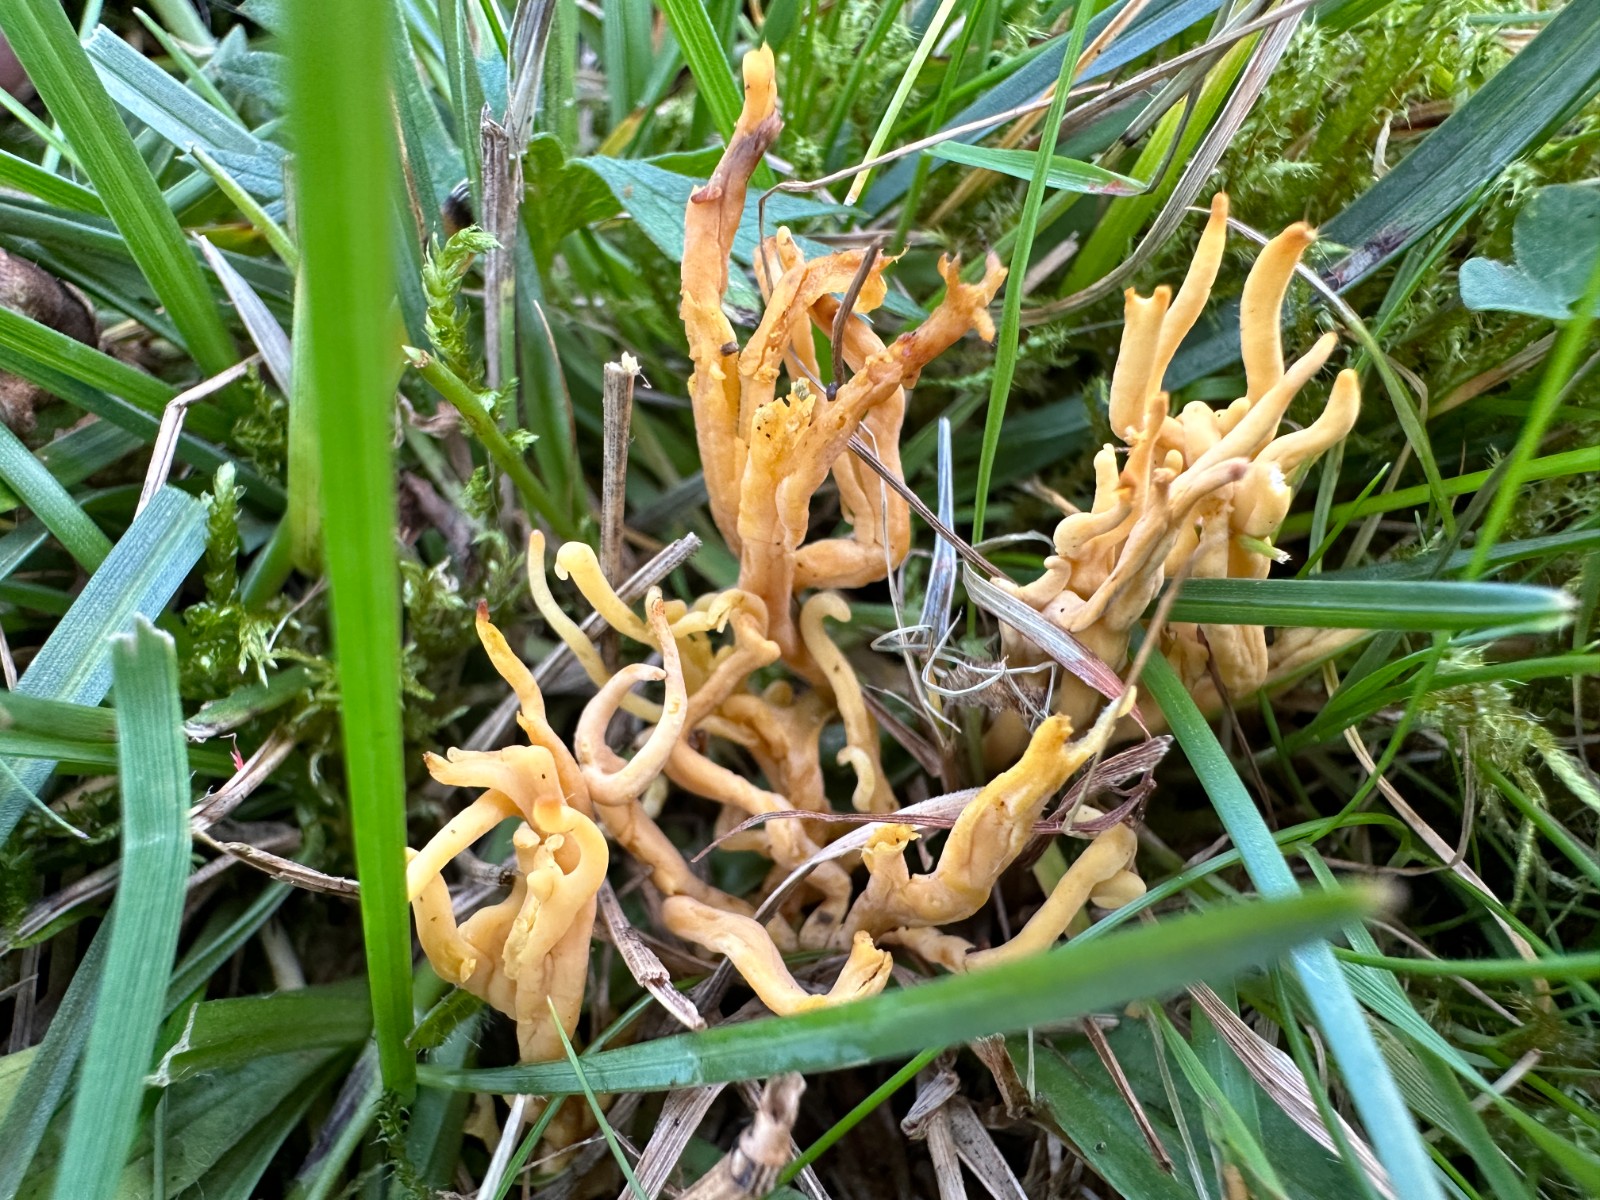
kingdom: Fungi
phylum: Basidiomycota
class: Agaricomycetes
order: Agaricales
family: Clavariaceae
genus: Clavulinopsis
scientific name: Clavulinopsis corniculata
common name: eng-køllesvamp
